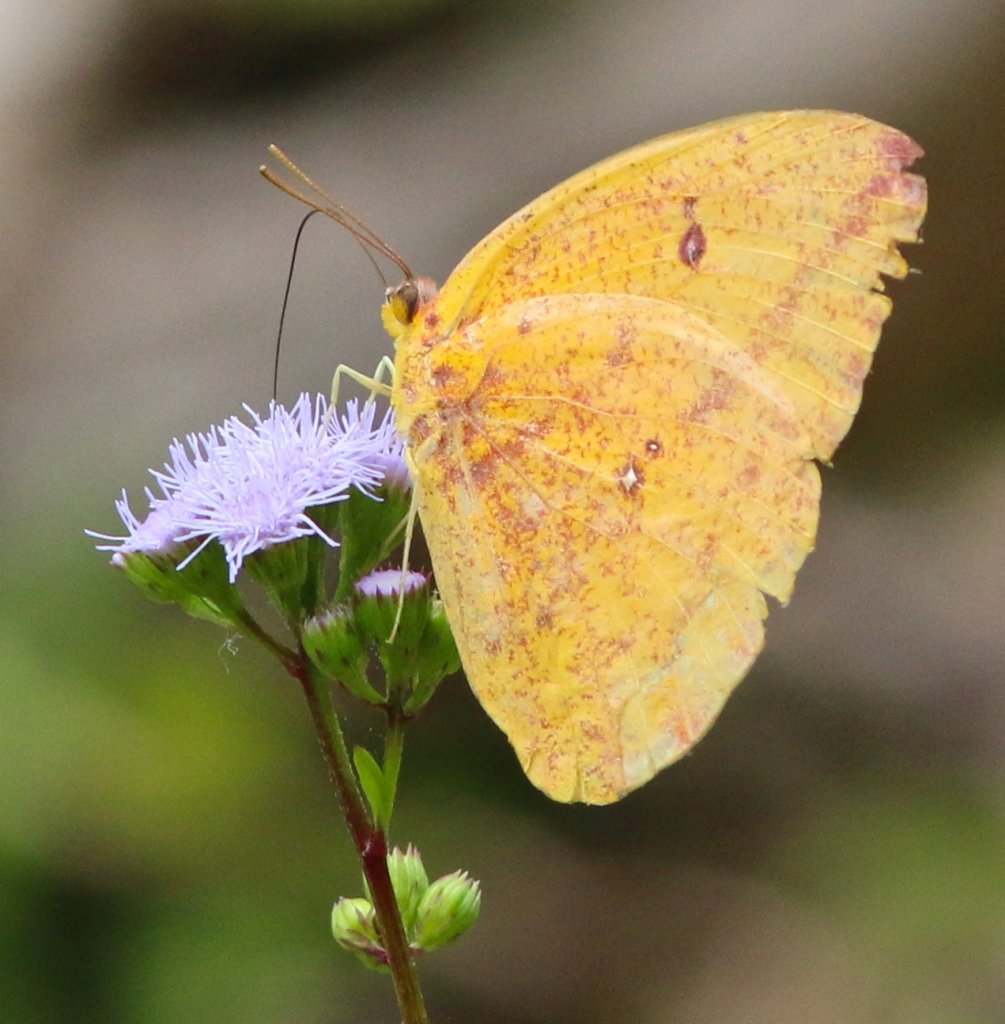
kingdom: Animalia
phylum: Arthropoda
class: Insecta
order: Lepidoptera
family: Pieridae
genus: Phoebis
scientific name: Phoebis agarithe
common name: Large Orange Sulphur
